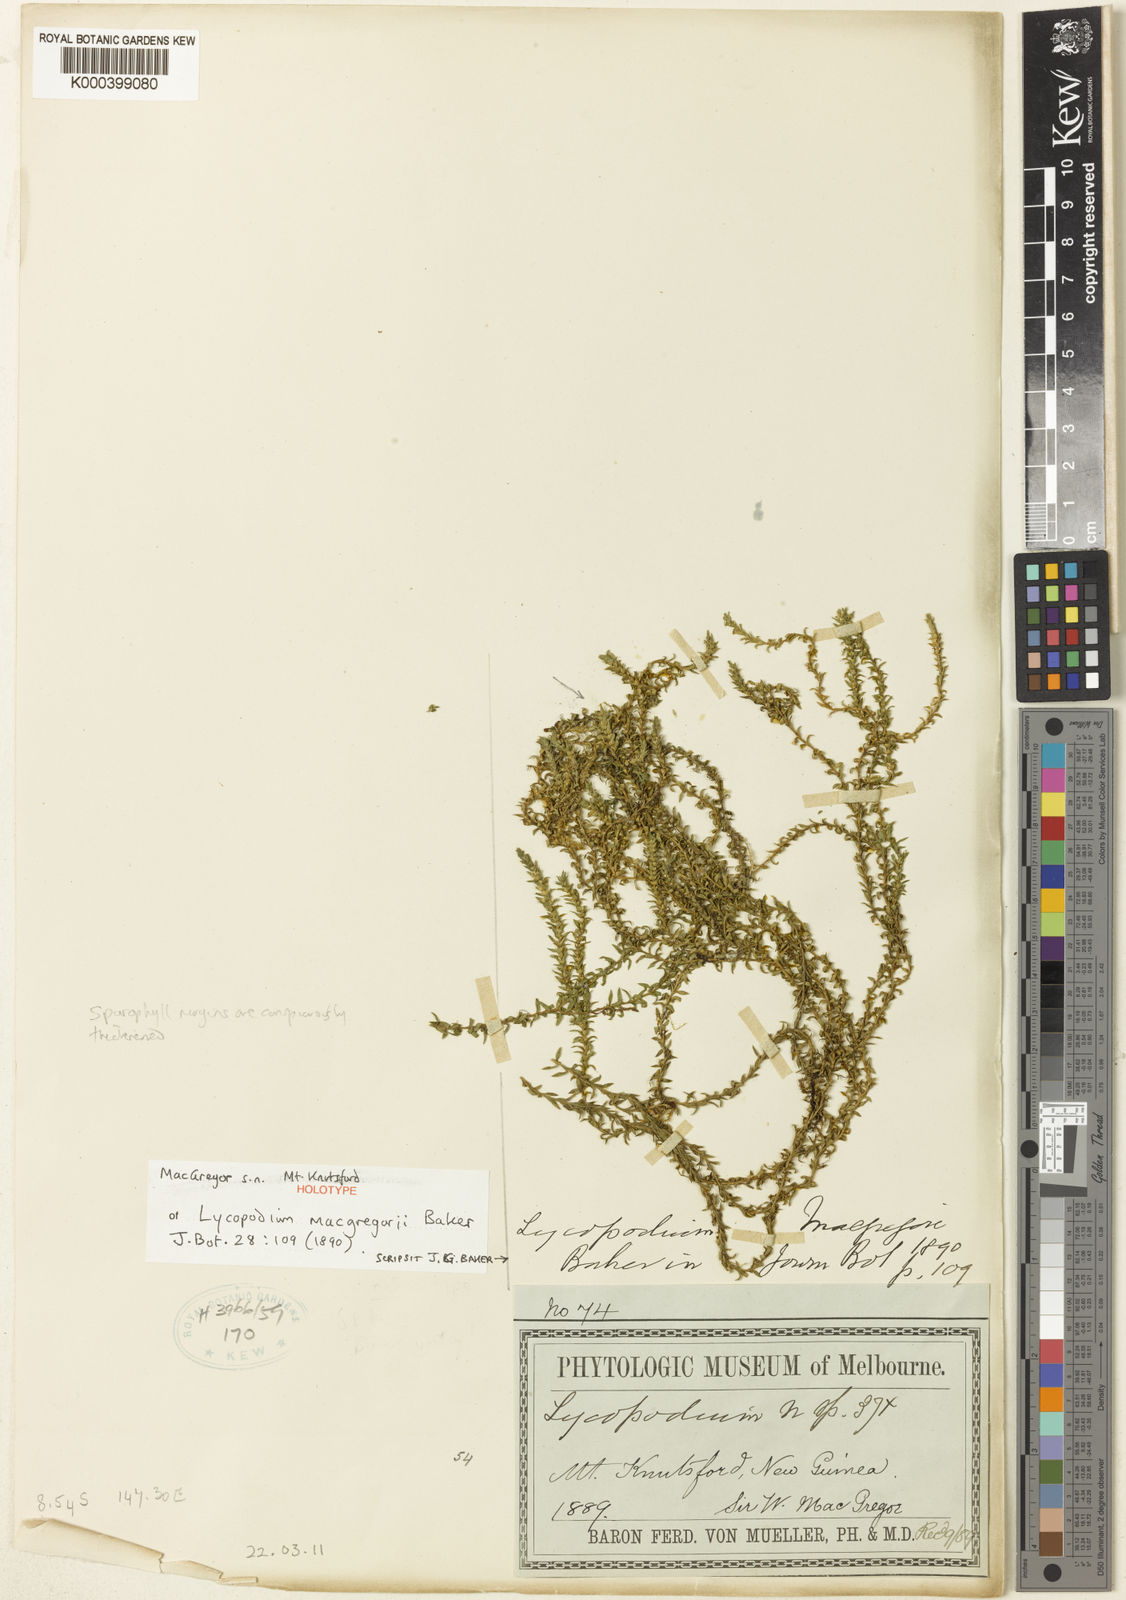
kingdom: Plantae
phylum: Tracheophyta
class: Lycopodiopsida
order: Lycopodiales
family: Lycopodiaceae
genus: Phlegmariurus
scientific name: Phlegmariurus macgregorii
